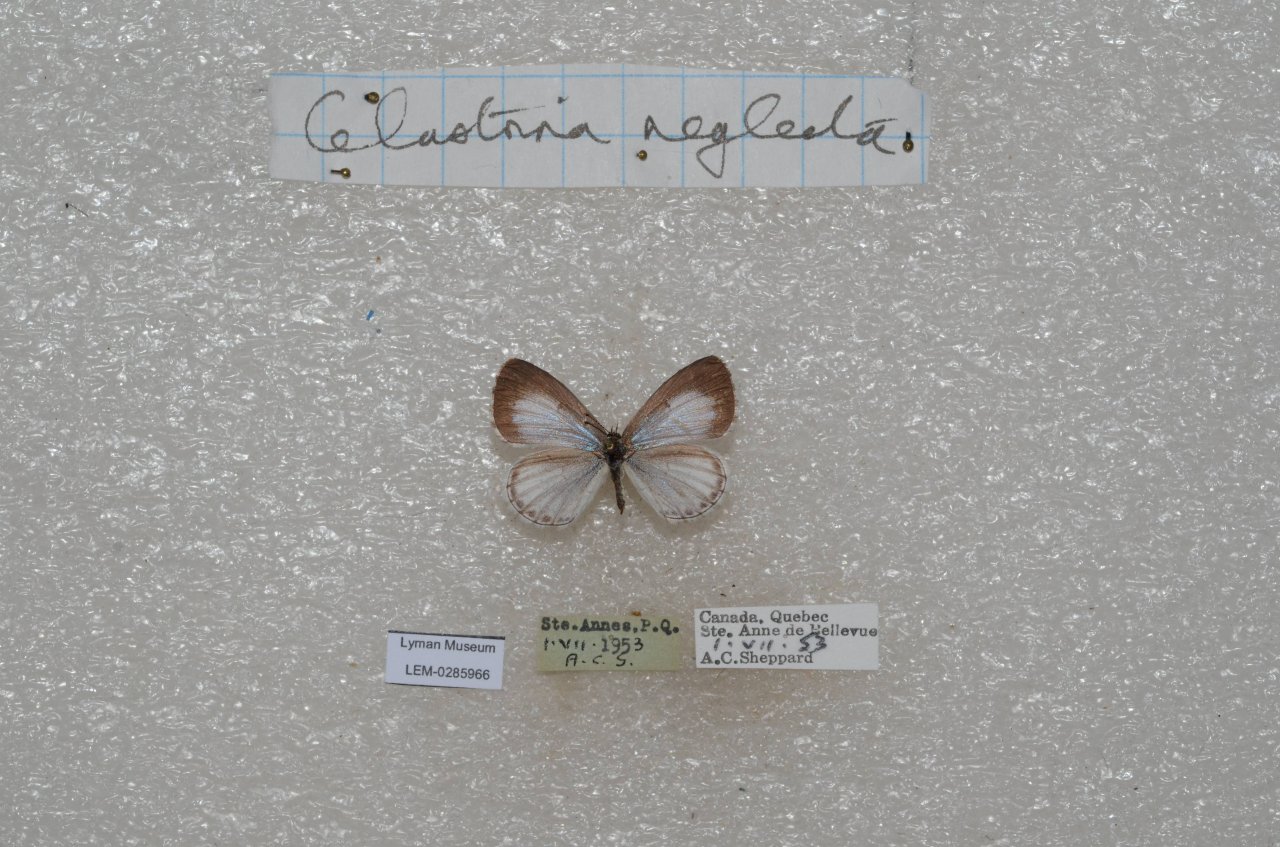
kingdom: Animalia
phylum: Arthropoda
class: Insecta
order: Lepidoptera
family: Lycaenidae
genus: Celastrina
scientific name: Celastrina lucia
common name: Northern Spring Azure
